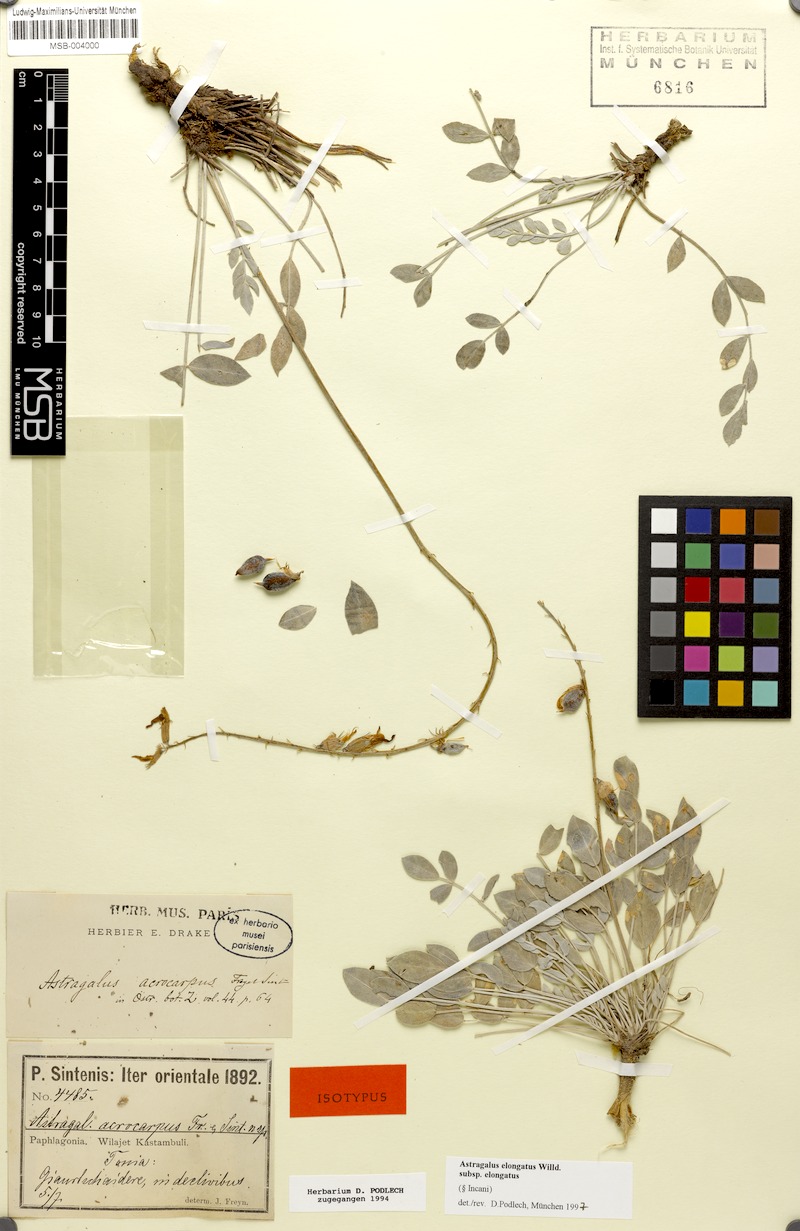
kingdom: Plantae
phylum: Tracheophyta
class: Magnoliopsida
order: Fabales
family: Fabaceae
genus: Astragalus
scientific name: Astragalus elongatus
